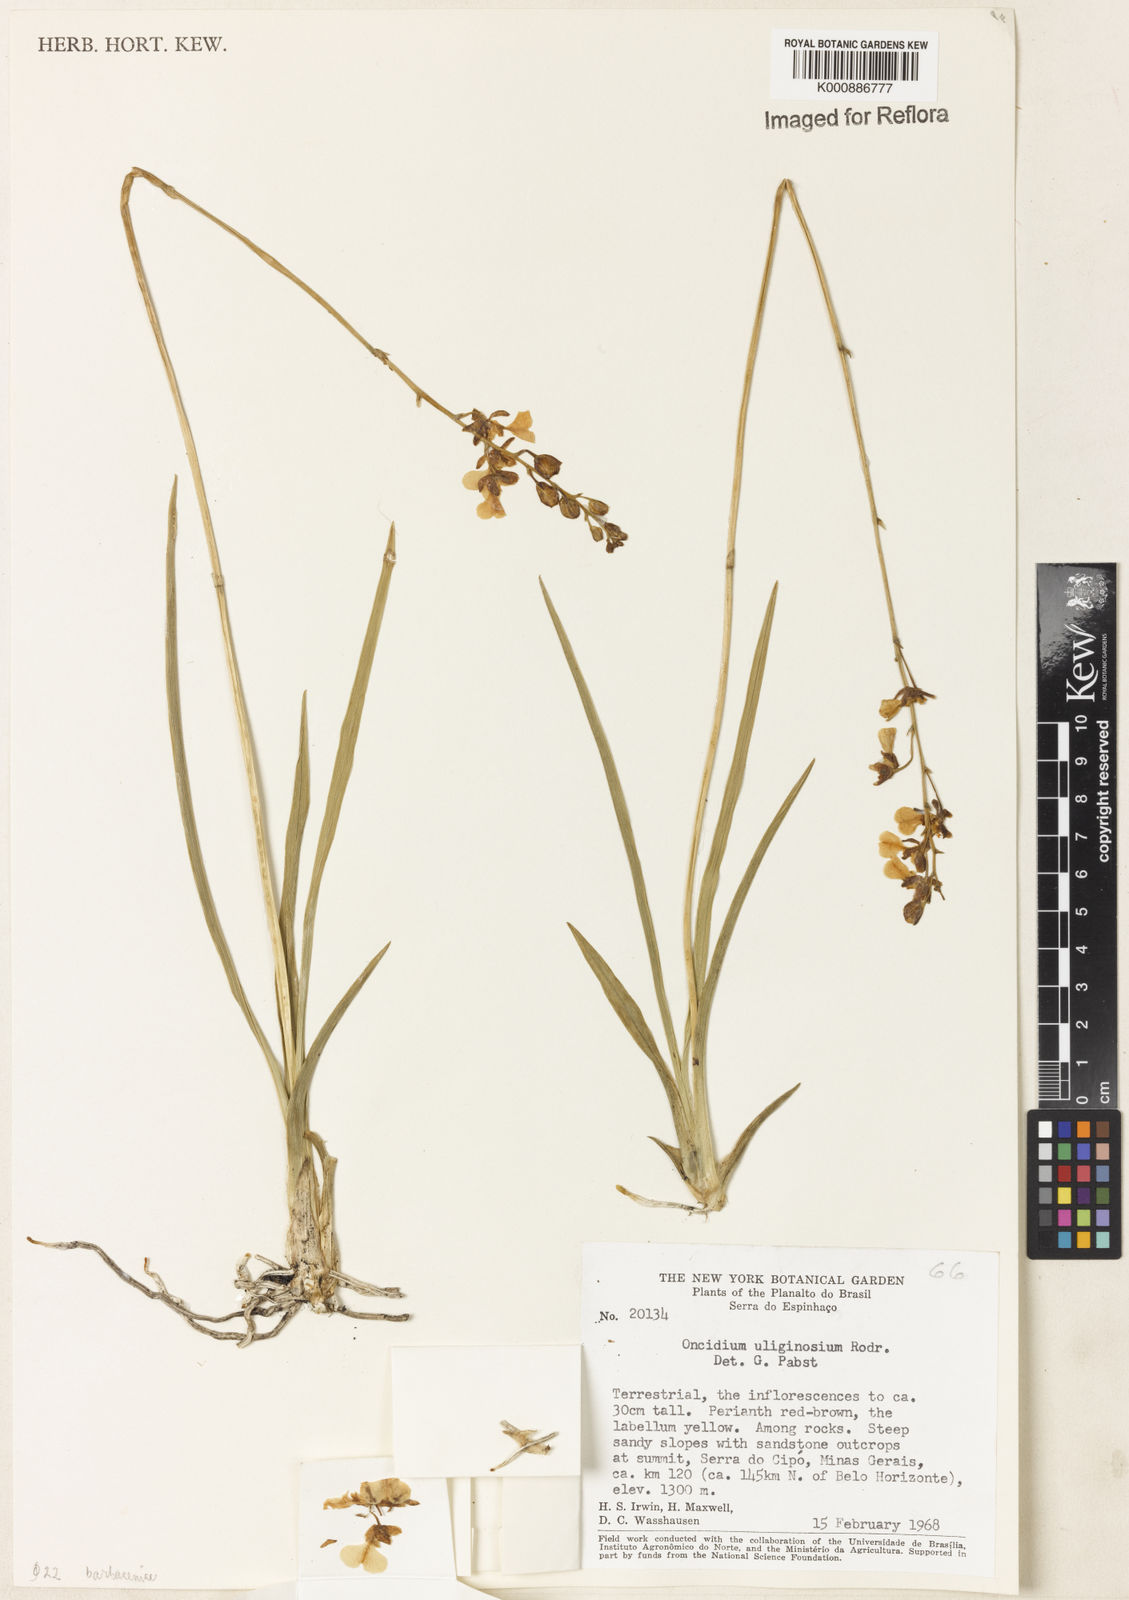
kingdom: Plantae
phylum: Tracheophyta
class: Liliopsida
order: Asparagales
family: Orchidaceae
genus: Gomesa
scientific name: Gomesa barbaceniae
